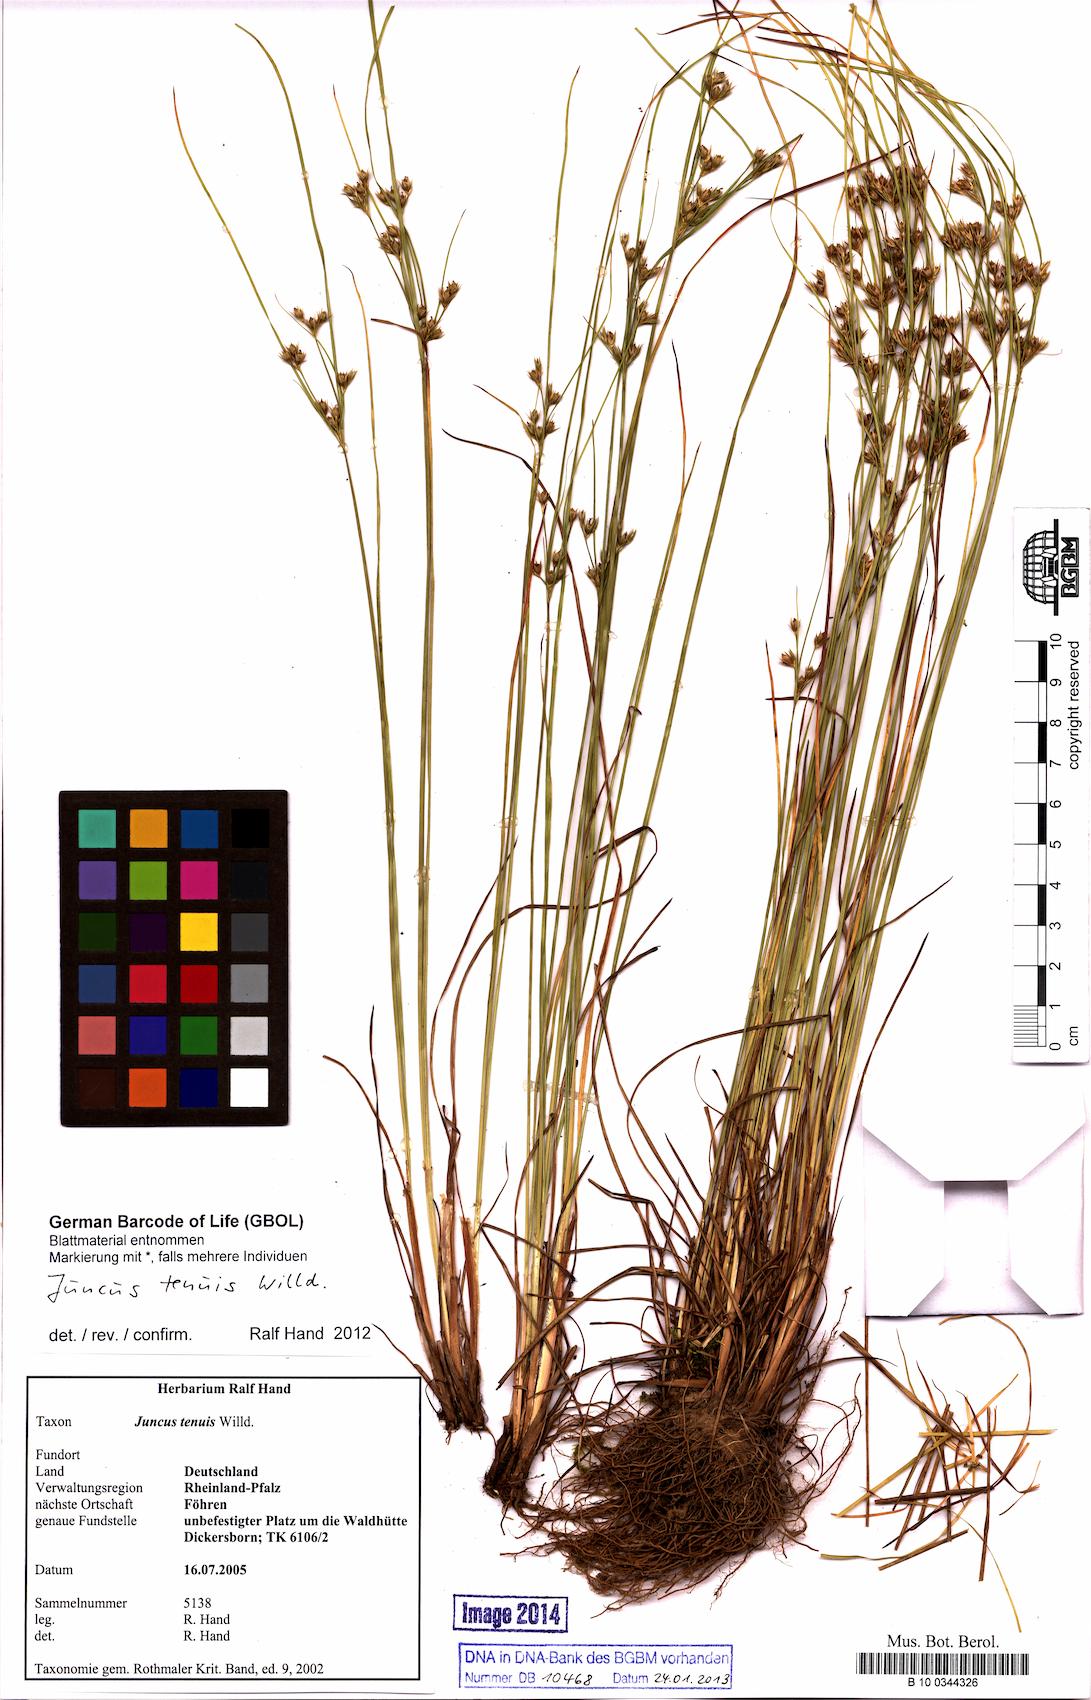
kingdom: Plantae
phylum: Tracheophyta
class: Liliopsida
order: Poales
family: Juncaceae
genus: Juncus
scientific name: Juncus tenuis
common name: Slender rush
